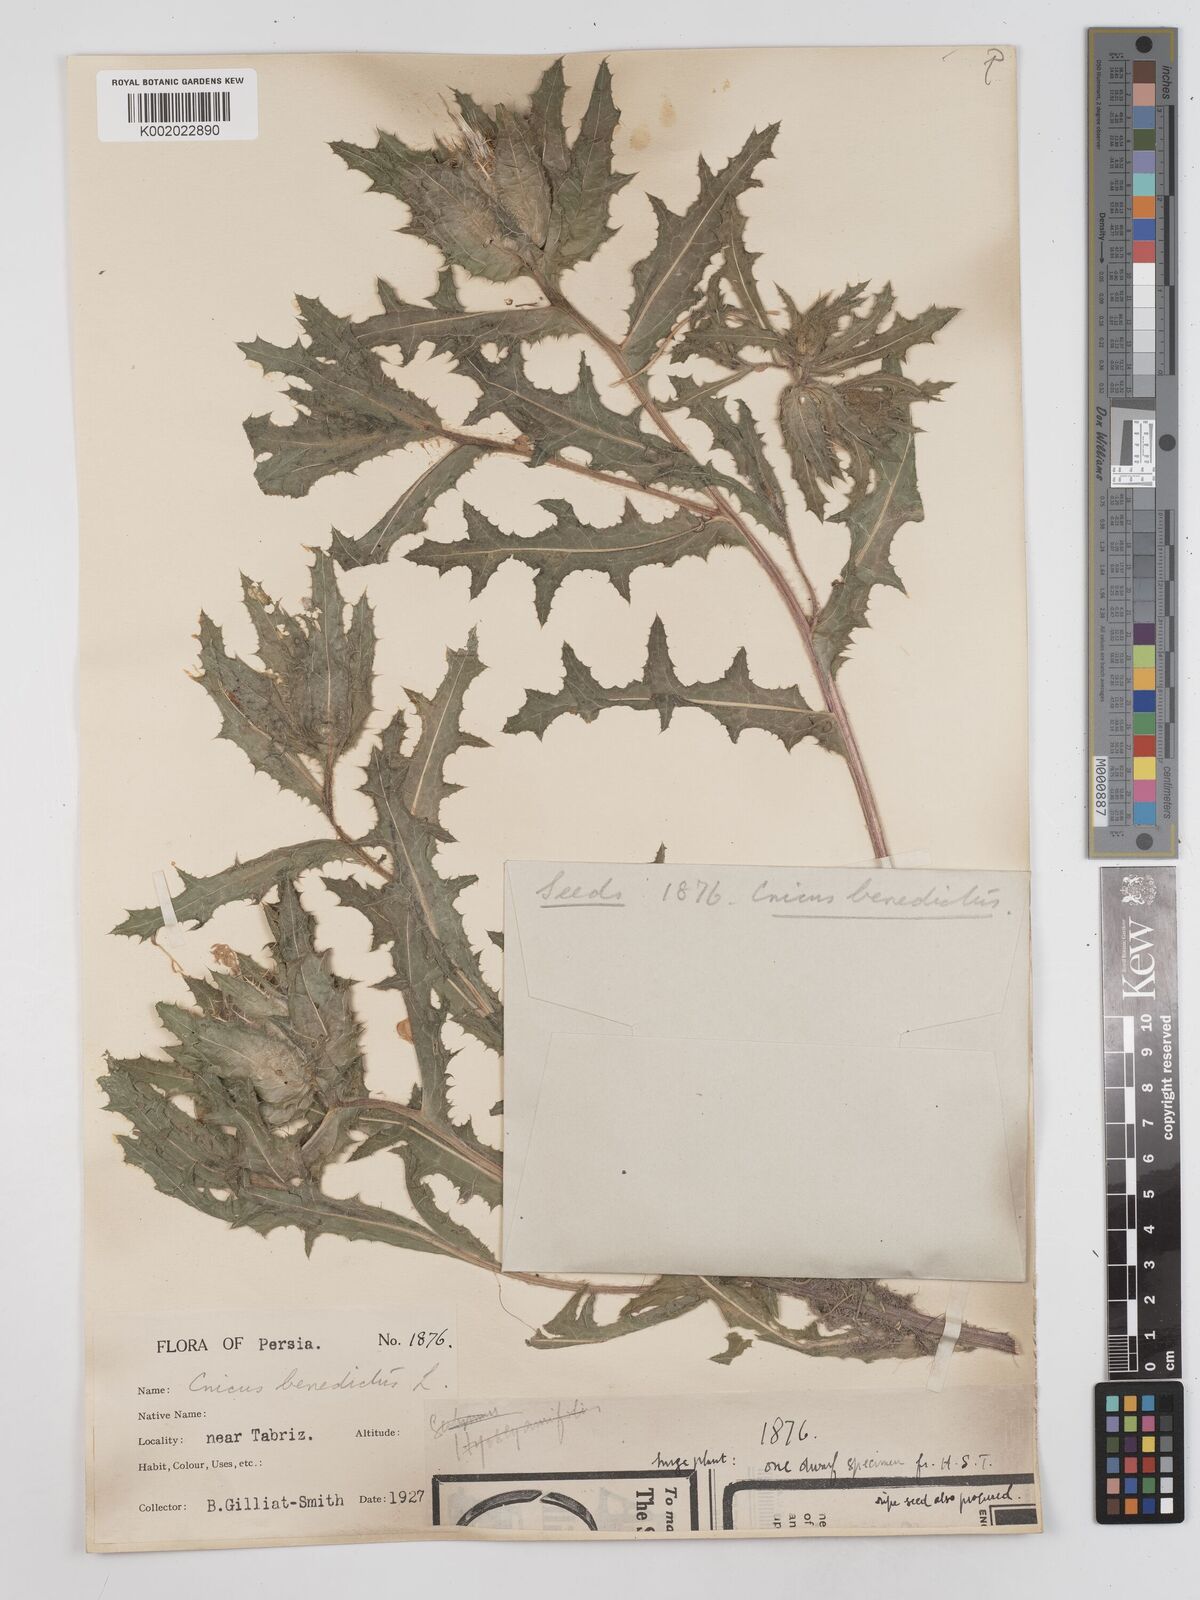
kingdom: Plantae
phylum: Tracheophyta
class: Magnoliopsida
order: Asterales
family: Asteraceae
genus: Centaurea
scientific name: Centaurea benedicta
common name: Blessed thistle
